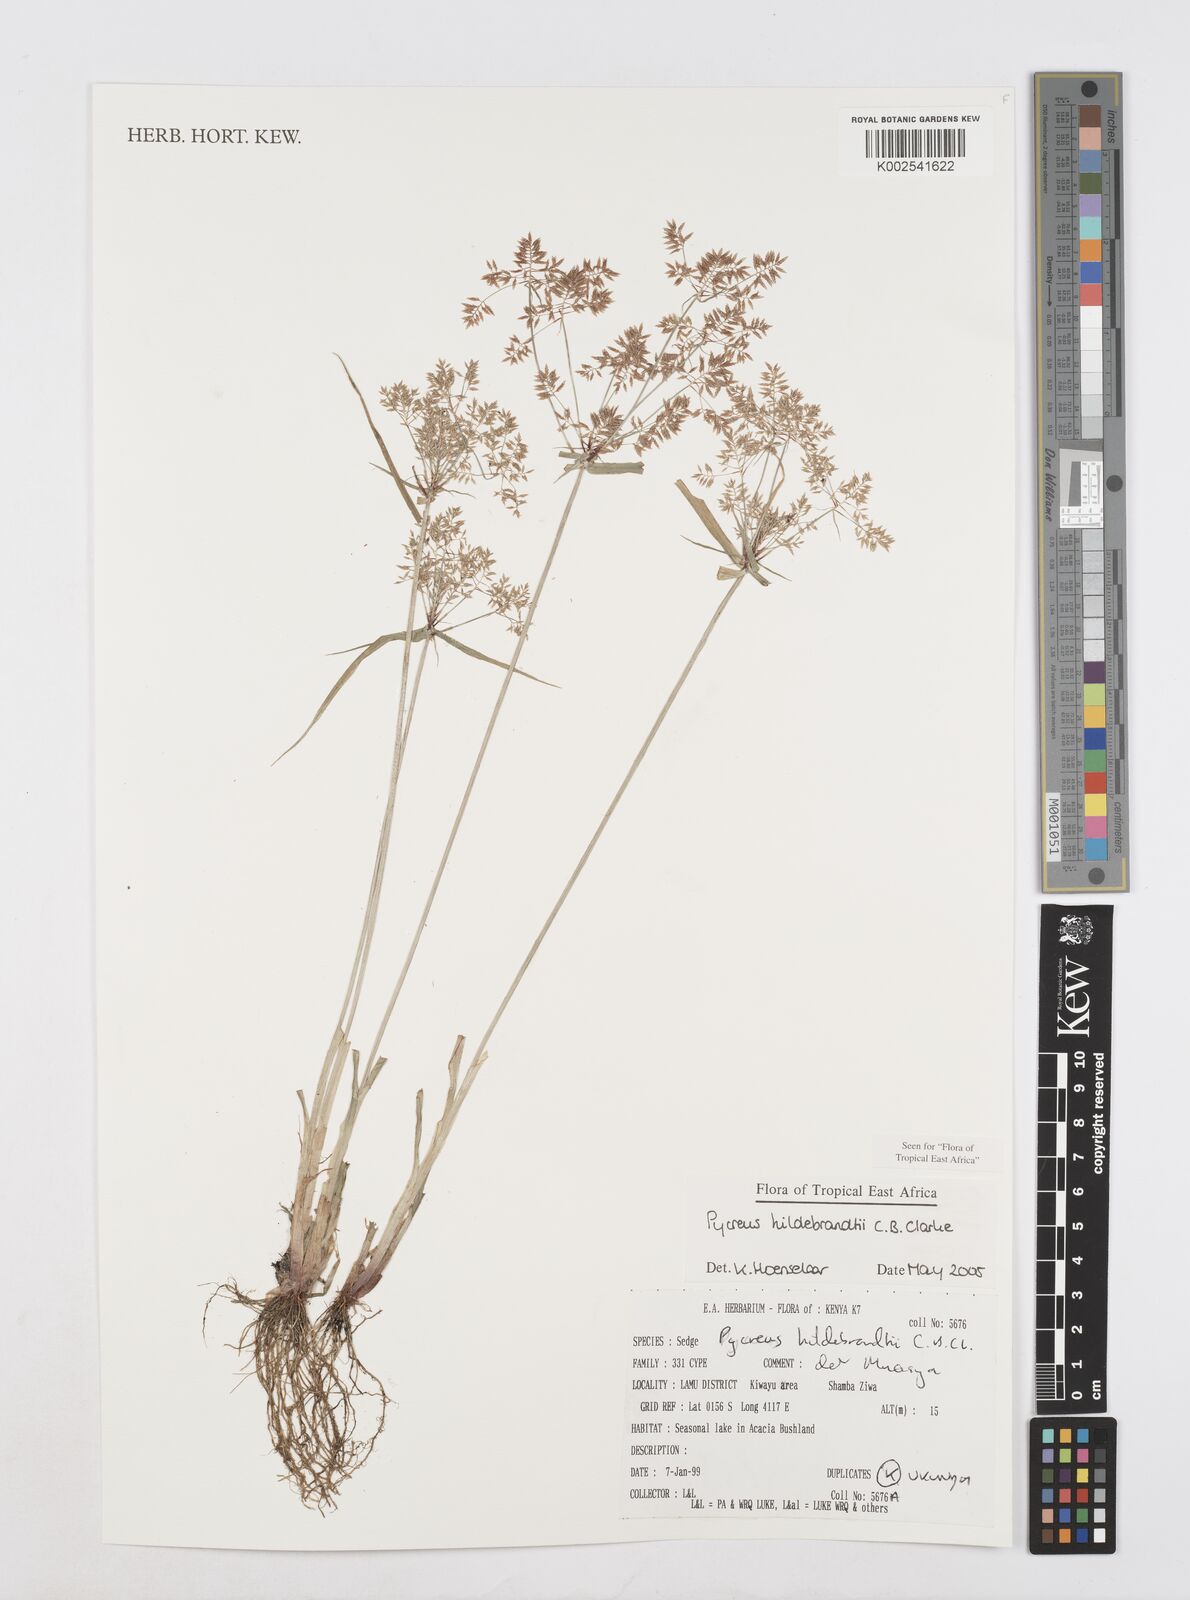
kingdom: Plantae
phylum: Tracheophyta
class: Liliopsida
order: Poales
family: Cyperaceae
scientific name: Cyperaceae
